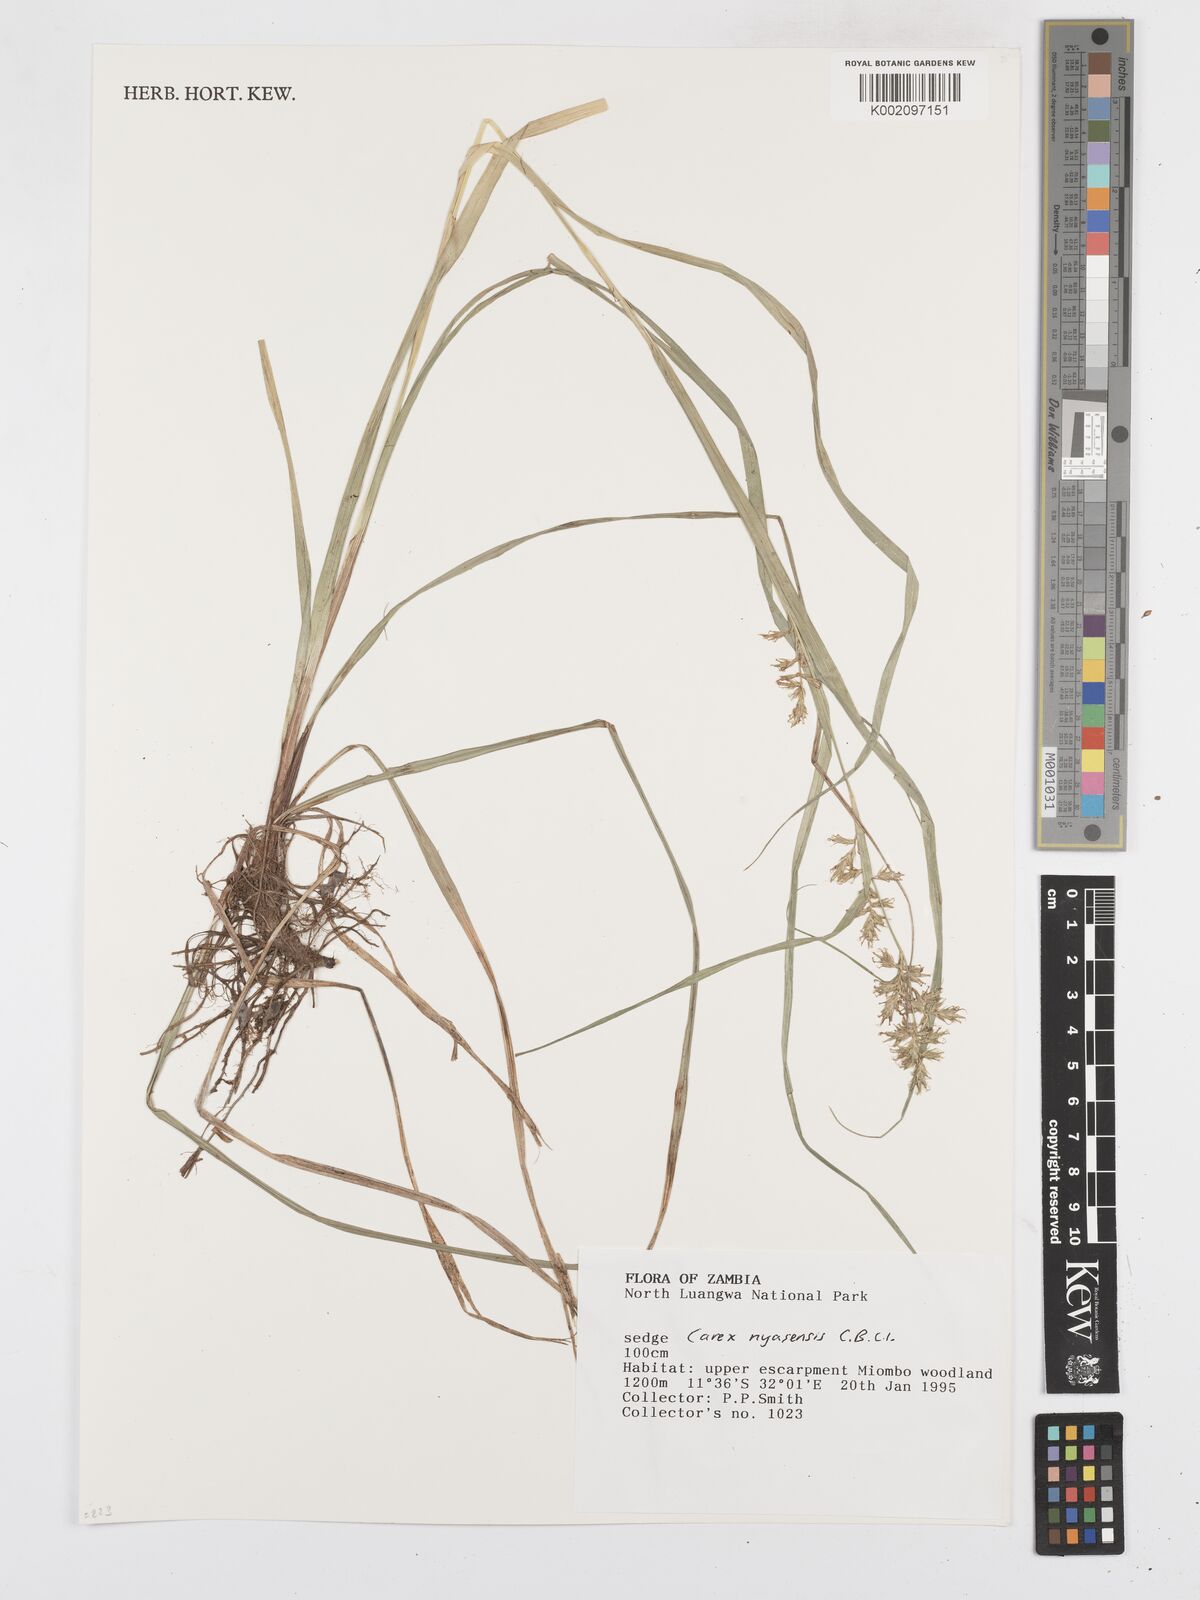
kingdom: Plantae
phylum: Tracheophyta
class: Liliopsida
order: Poales
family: Cyperaceae
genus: Carex
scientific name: Carex echinochloe
